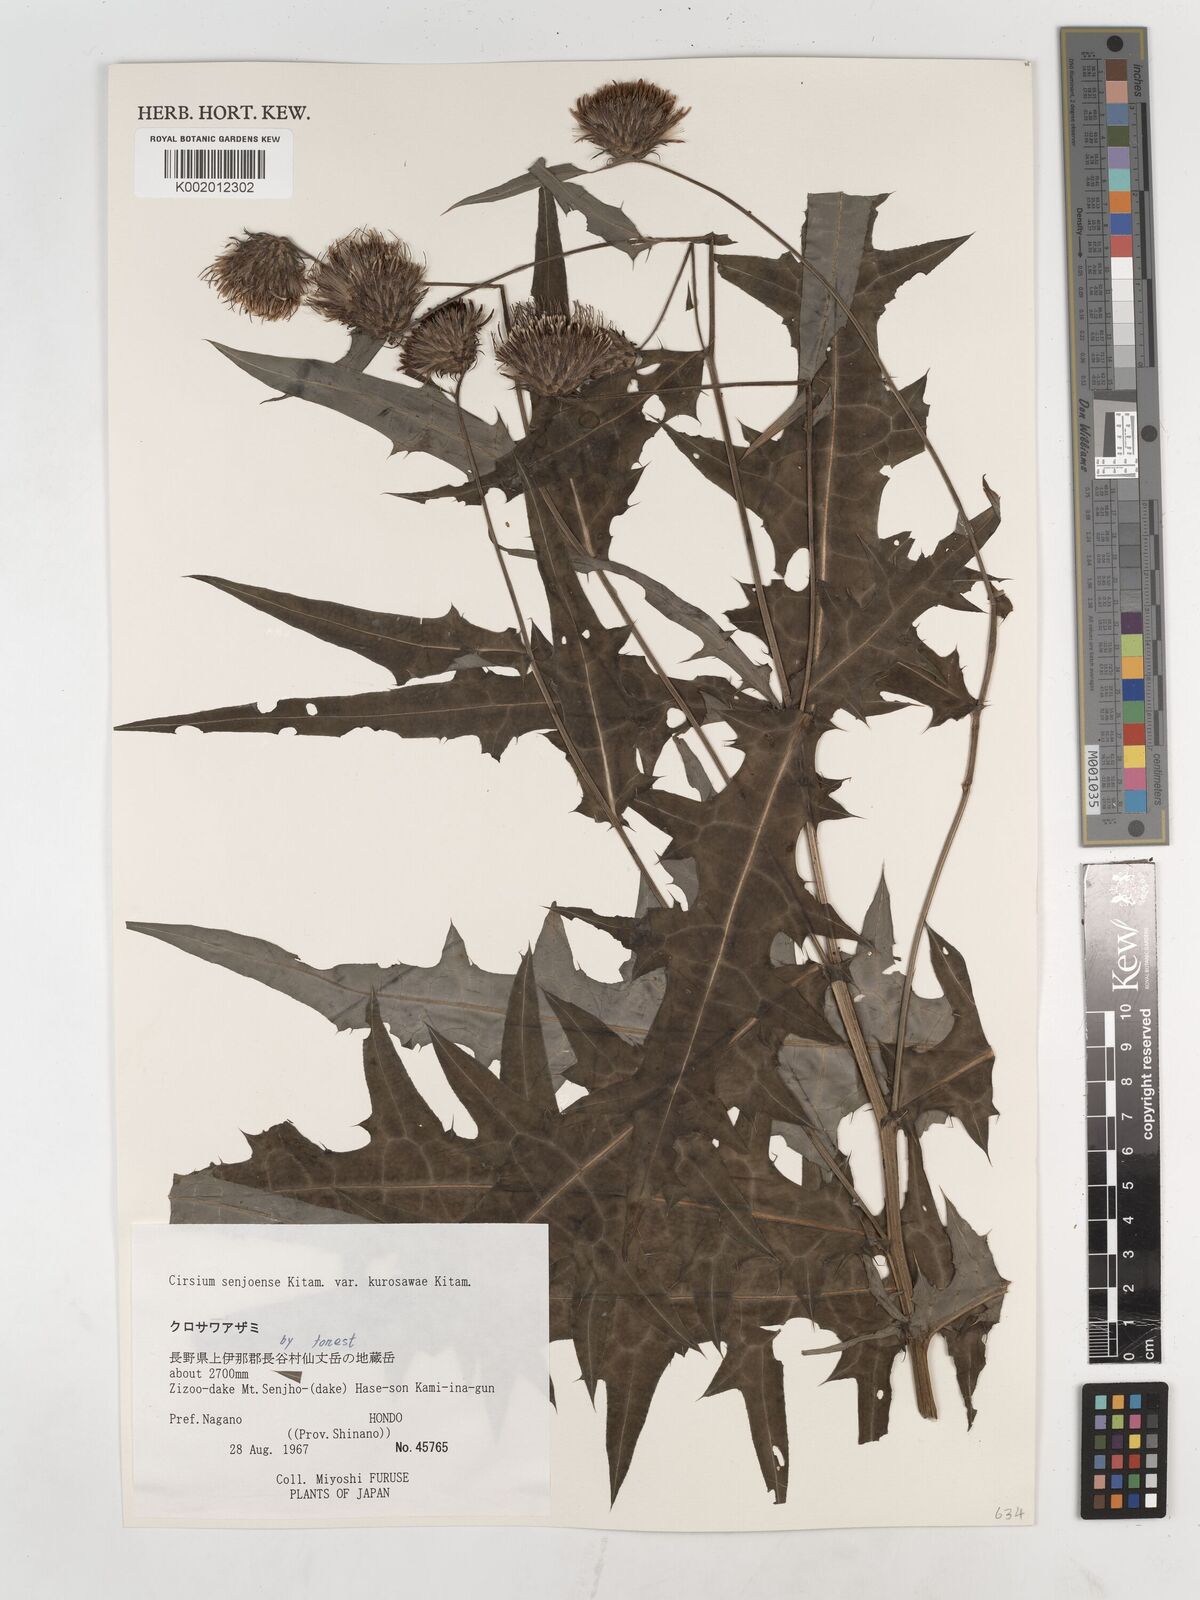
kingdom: Plantae
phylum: Tracheophyta
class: Magnoliopsida
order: Asterales
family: Asteraceae
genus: Cirsium
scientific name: Cirsium senjoense
